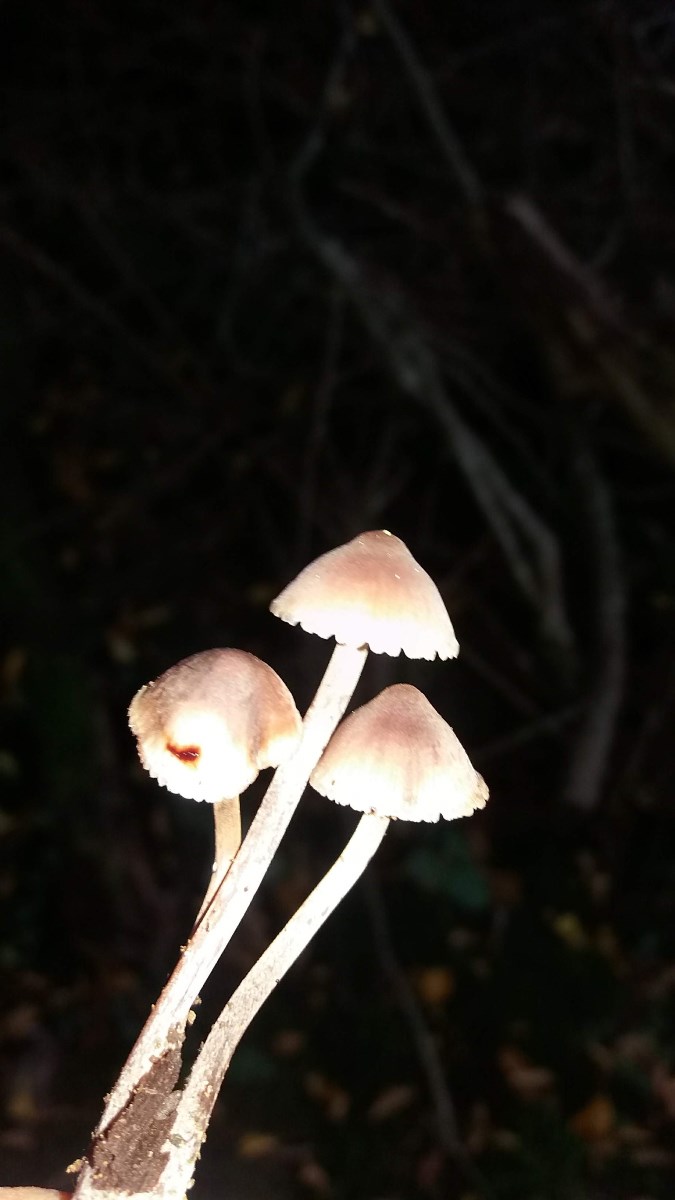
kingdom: Fungi
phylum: Basidiomycota
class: Agaricomycetes
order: Agaricales
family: Mycenaceae
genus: Mycena
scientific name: Mycena haematopus
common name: blødende huesvamp
